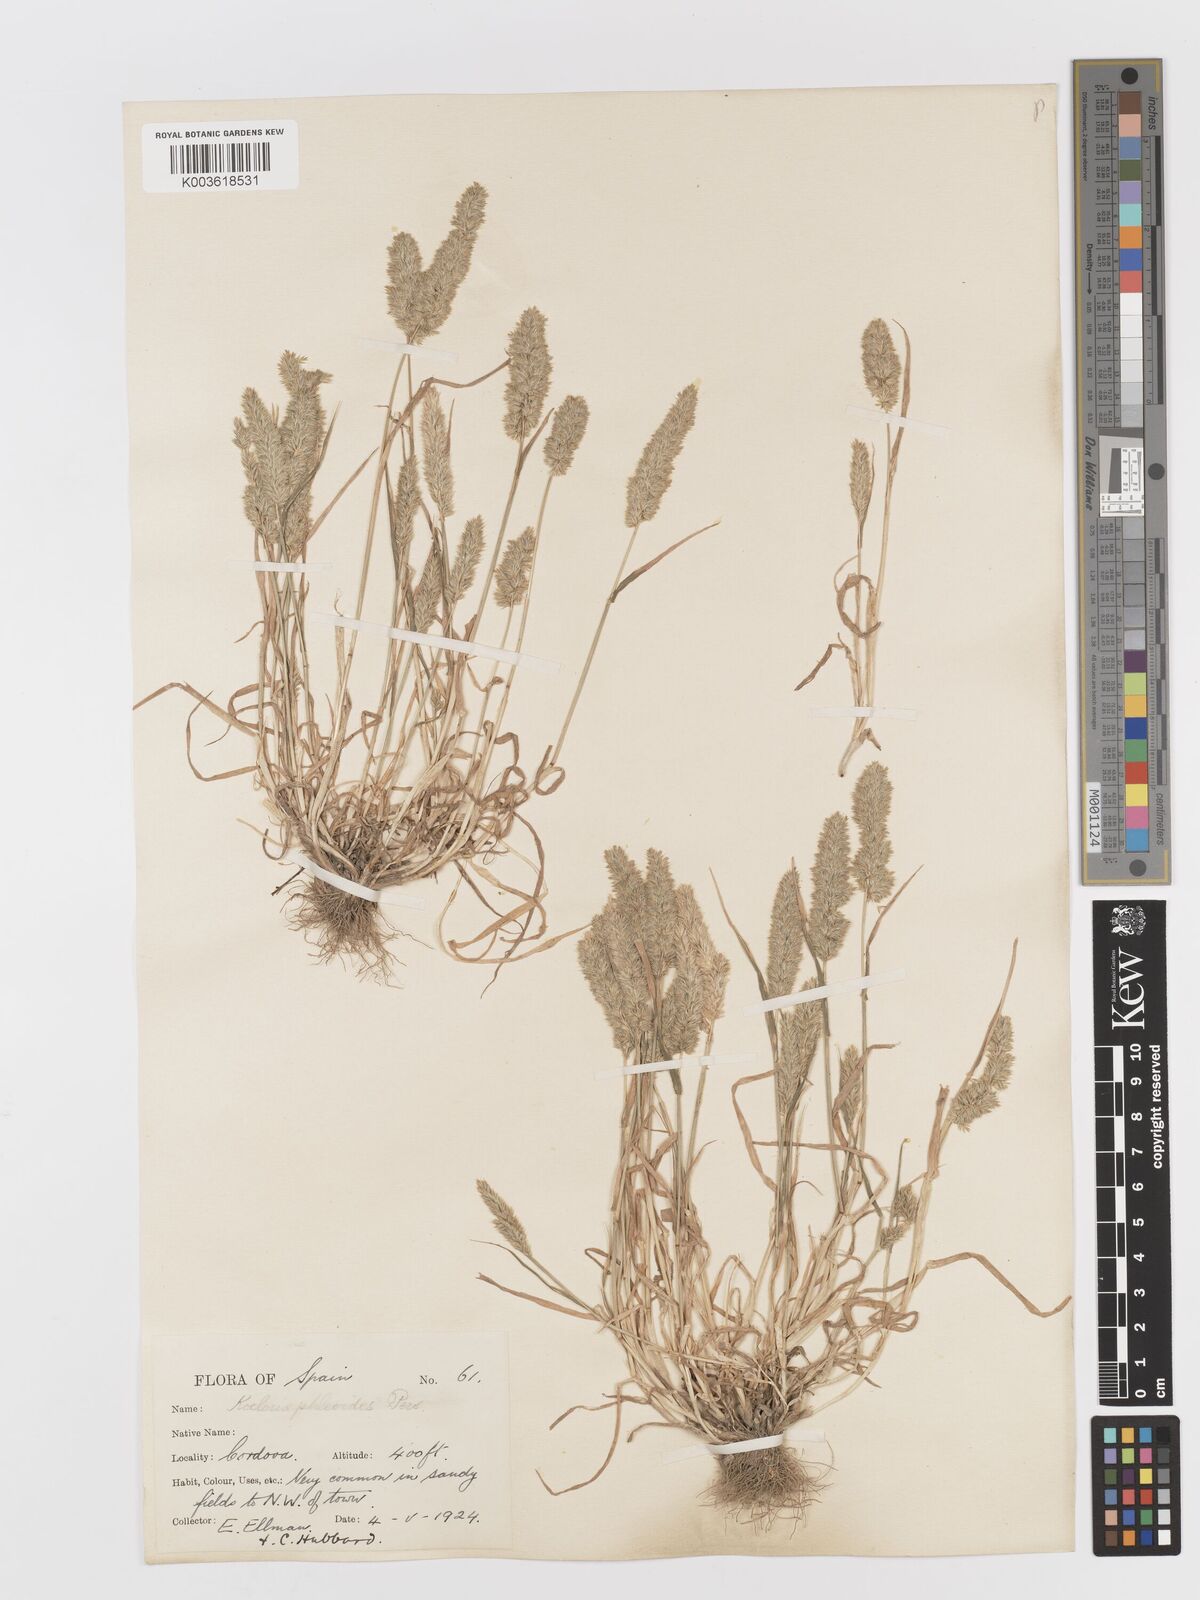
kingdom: Plantae
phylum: Tracheophyta
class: Liliopsida
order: Poales
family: Poaceae
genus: Rostraria
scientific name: Rostraria cristata
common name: Mediterranean hair-grass
